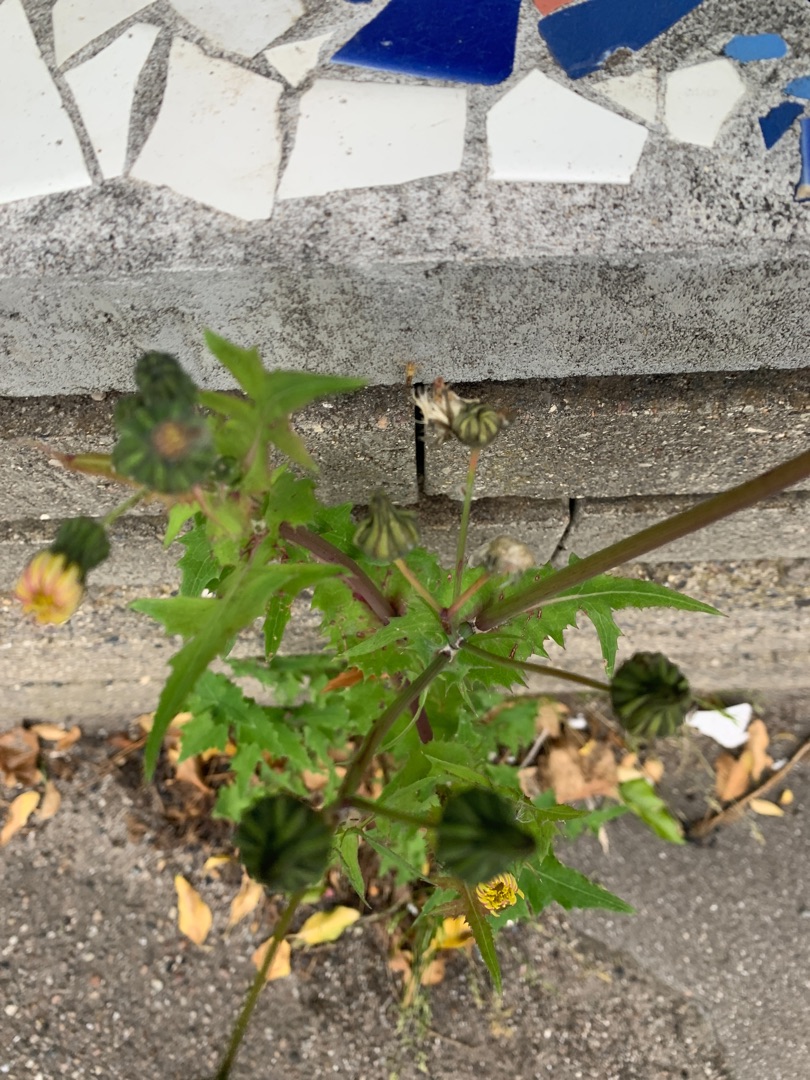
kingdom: Plantae
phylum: Tracheophyta
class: Magnoliopsida
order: Asterales
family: Asteraceae
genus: Sonchus
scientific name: Sonchus oleraceus
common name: Almindelig svinemælk
